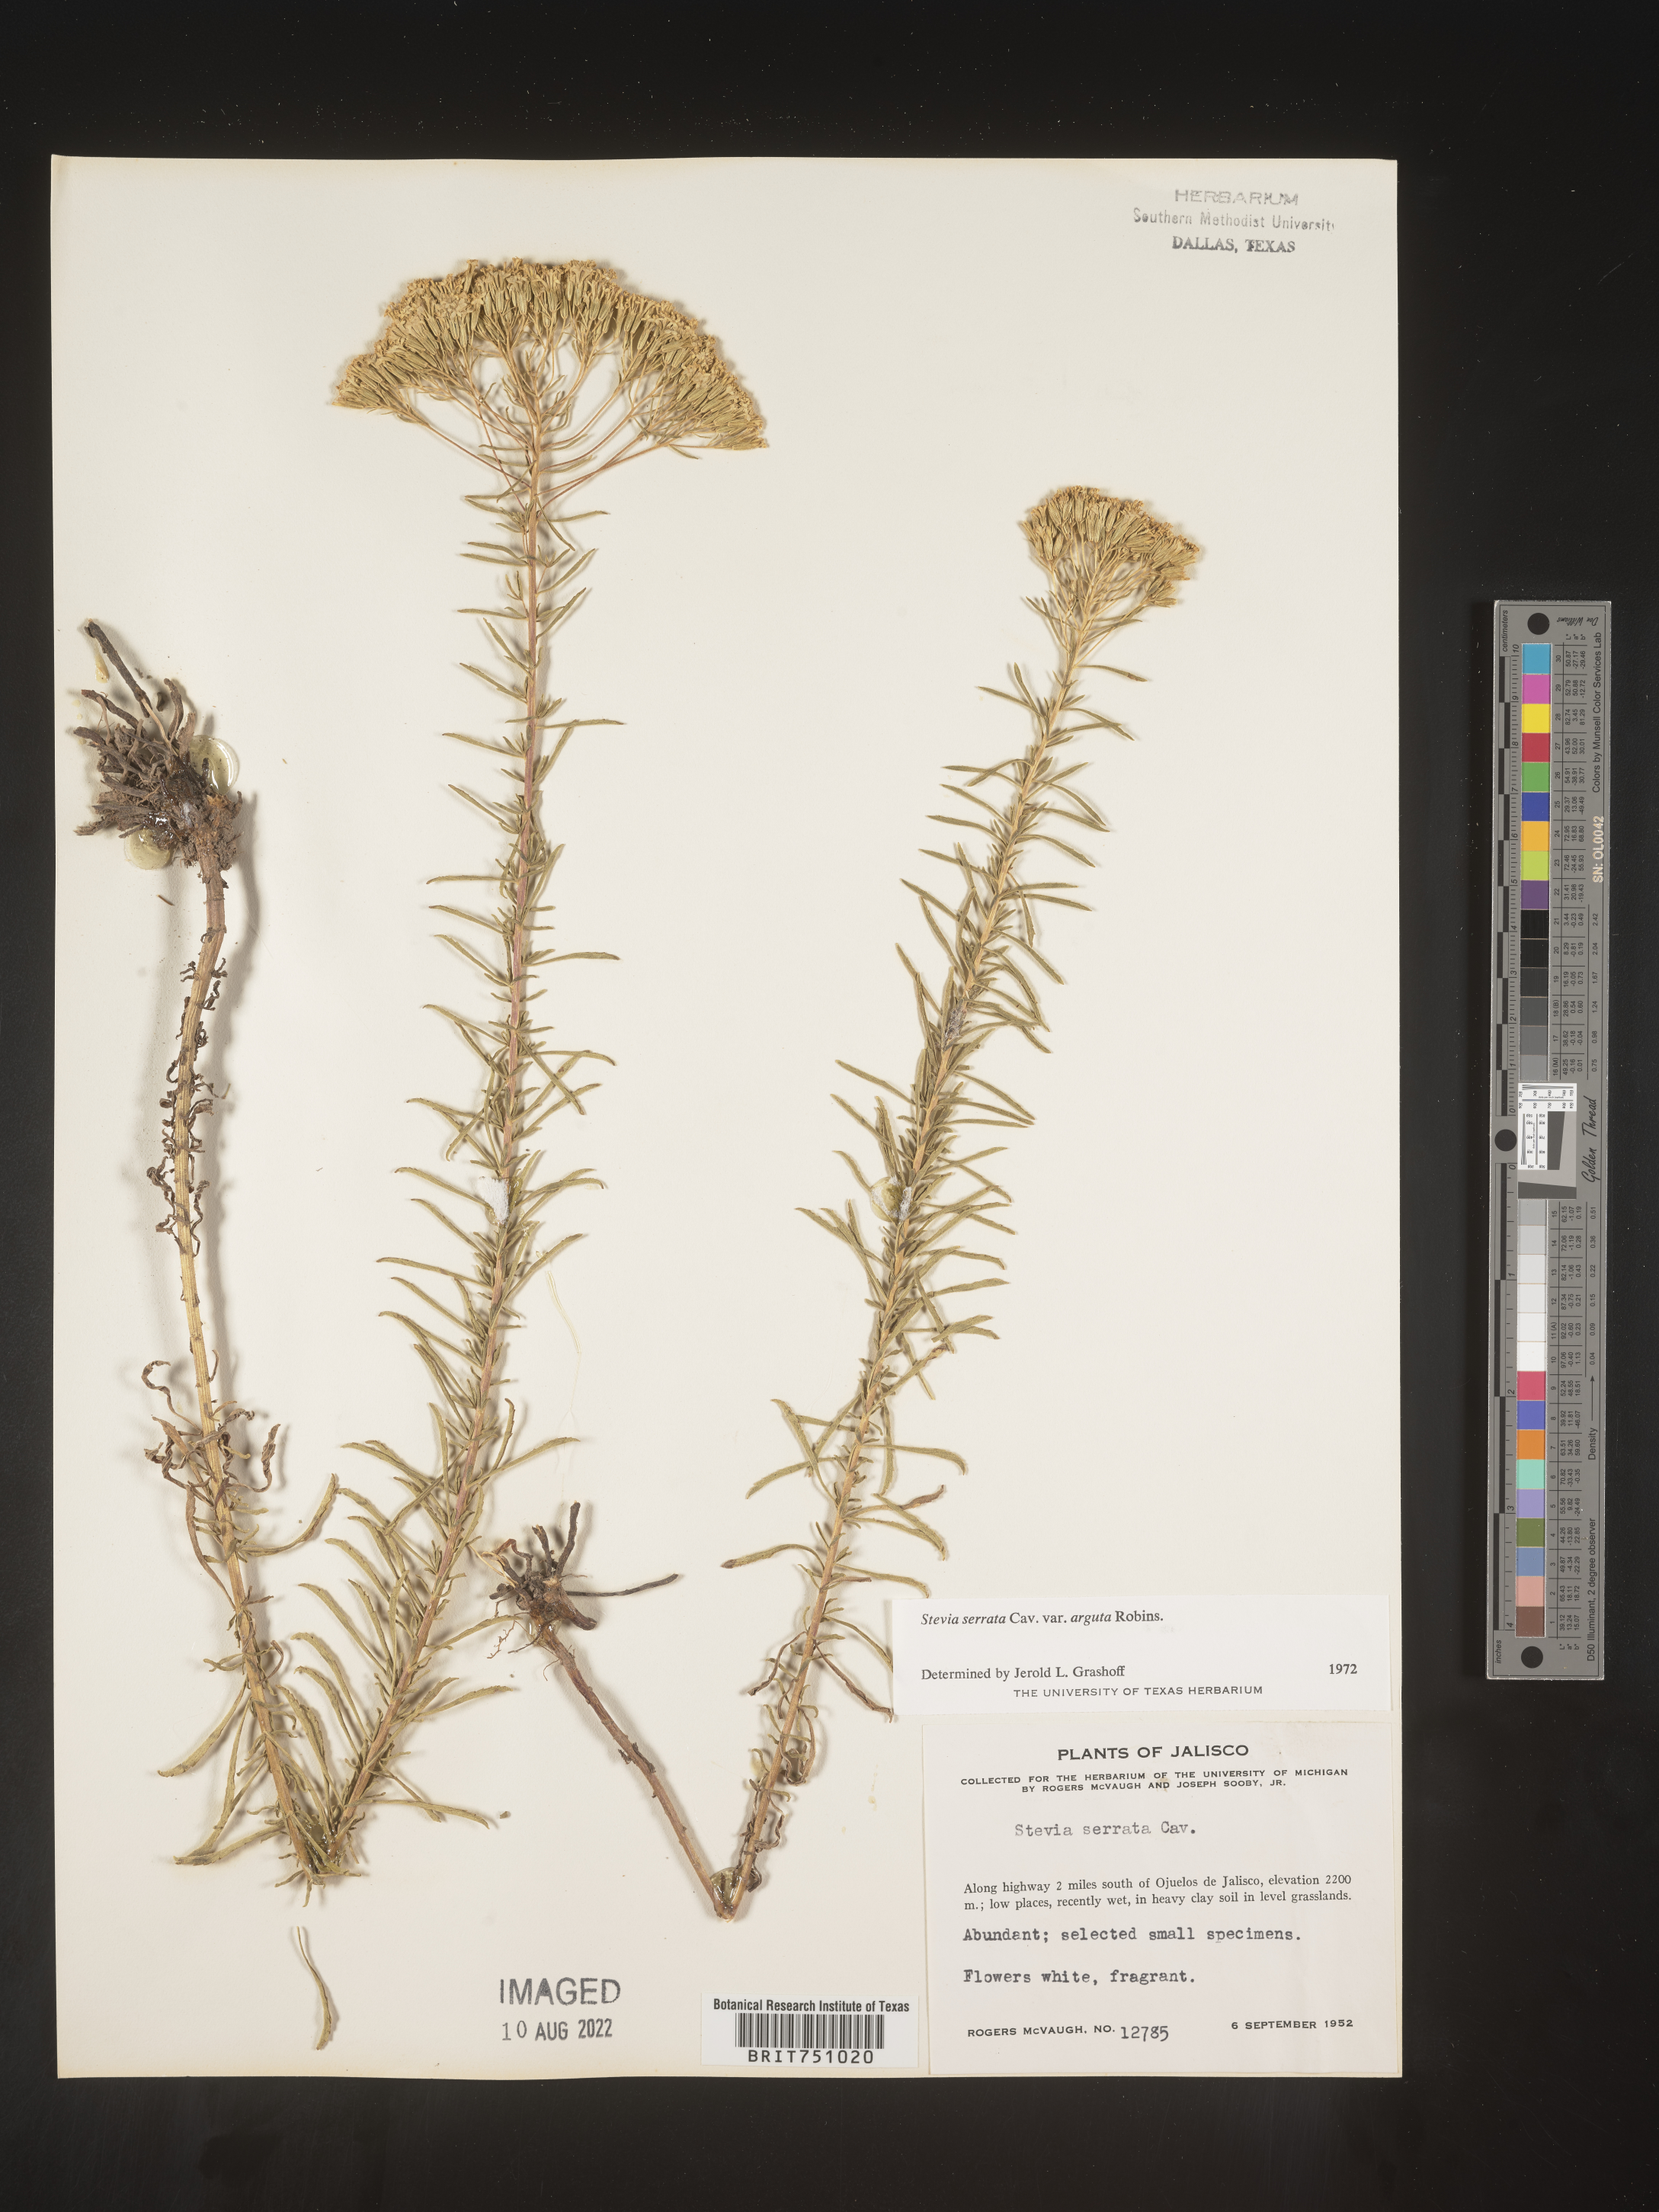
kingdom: Plantae
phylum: Tracheophyta
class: Magnoliopsida
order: Asterales
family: Asteraceae
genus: Stevia
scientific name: Stevia serrata
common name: Sawtooth candyleaf
